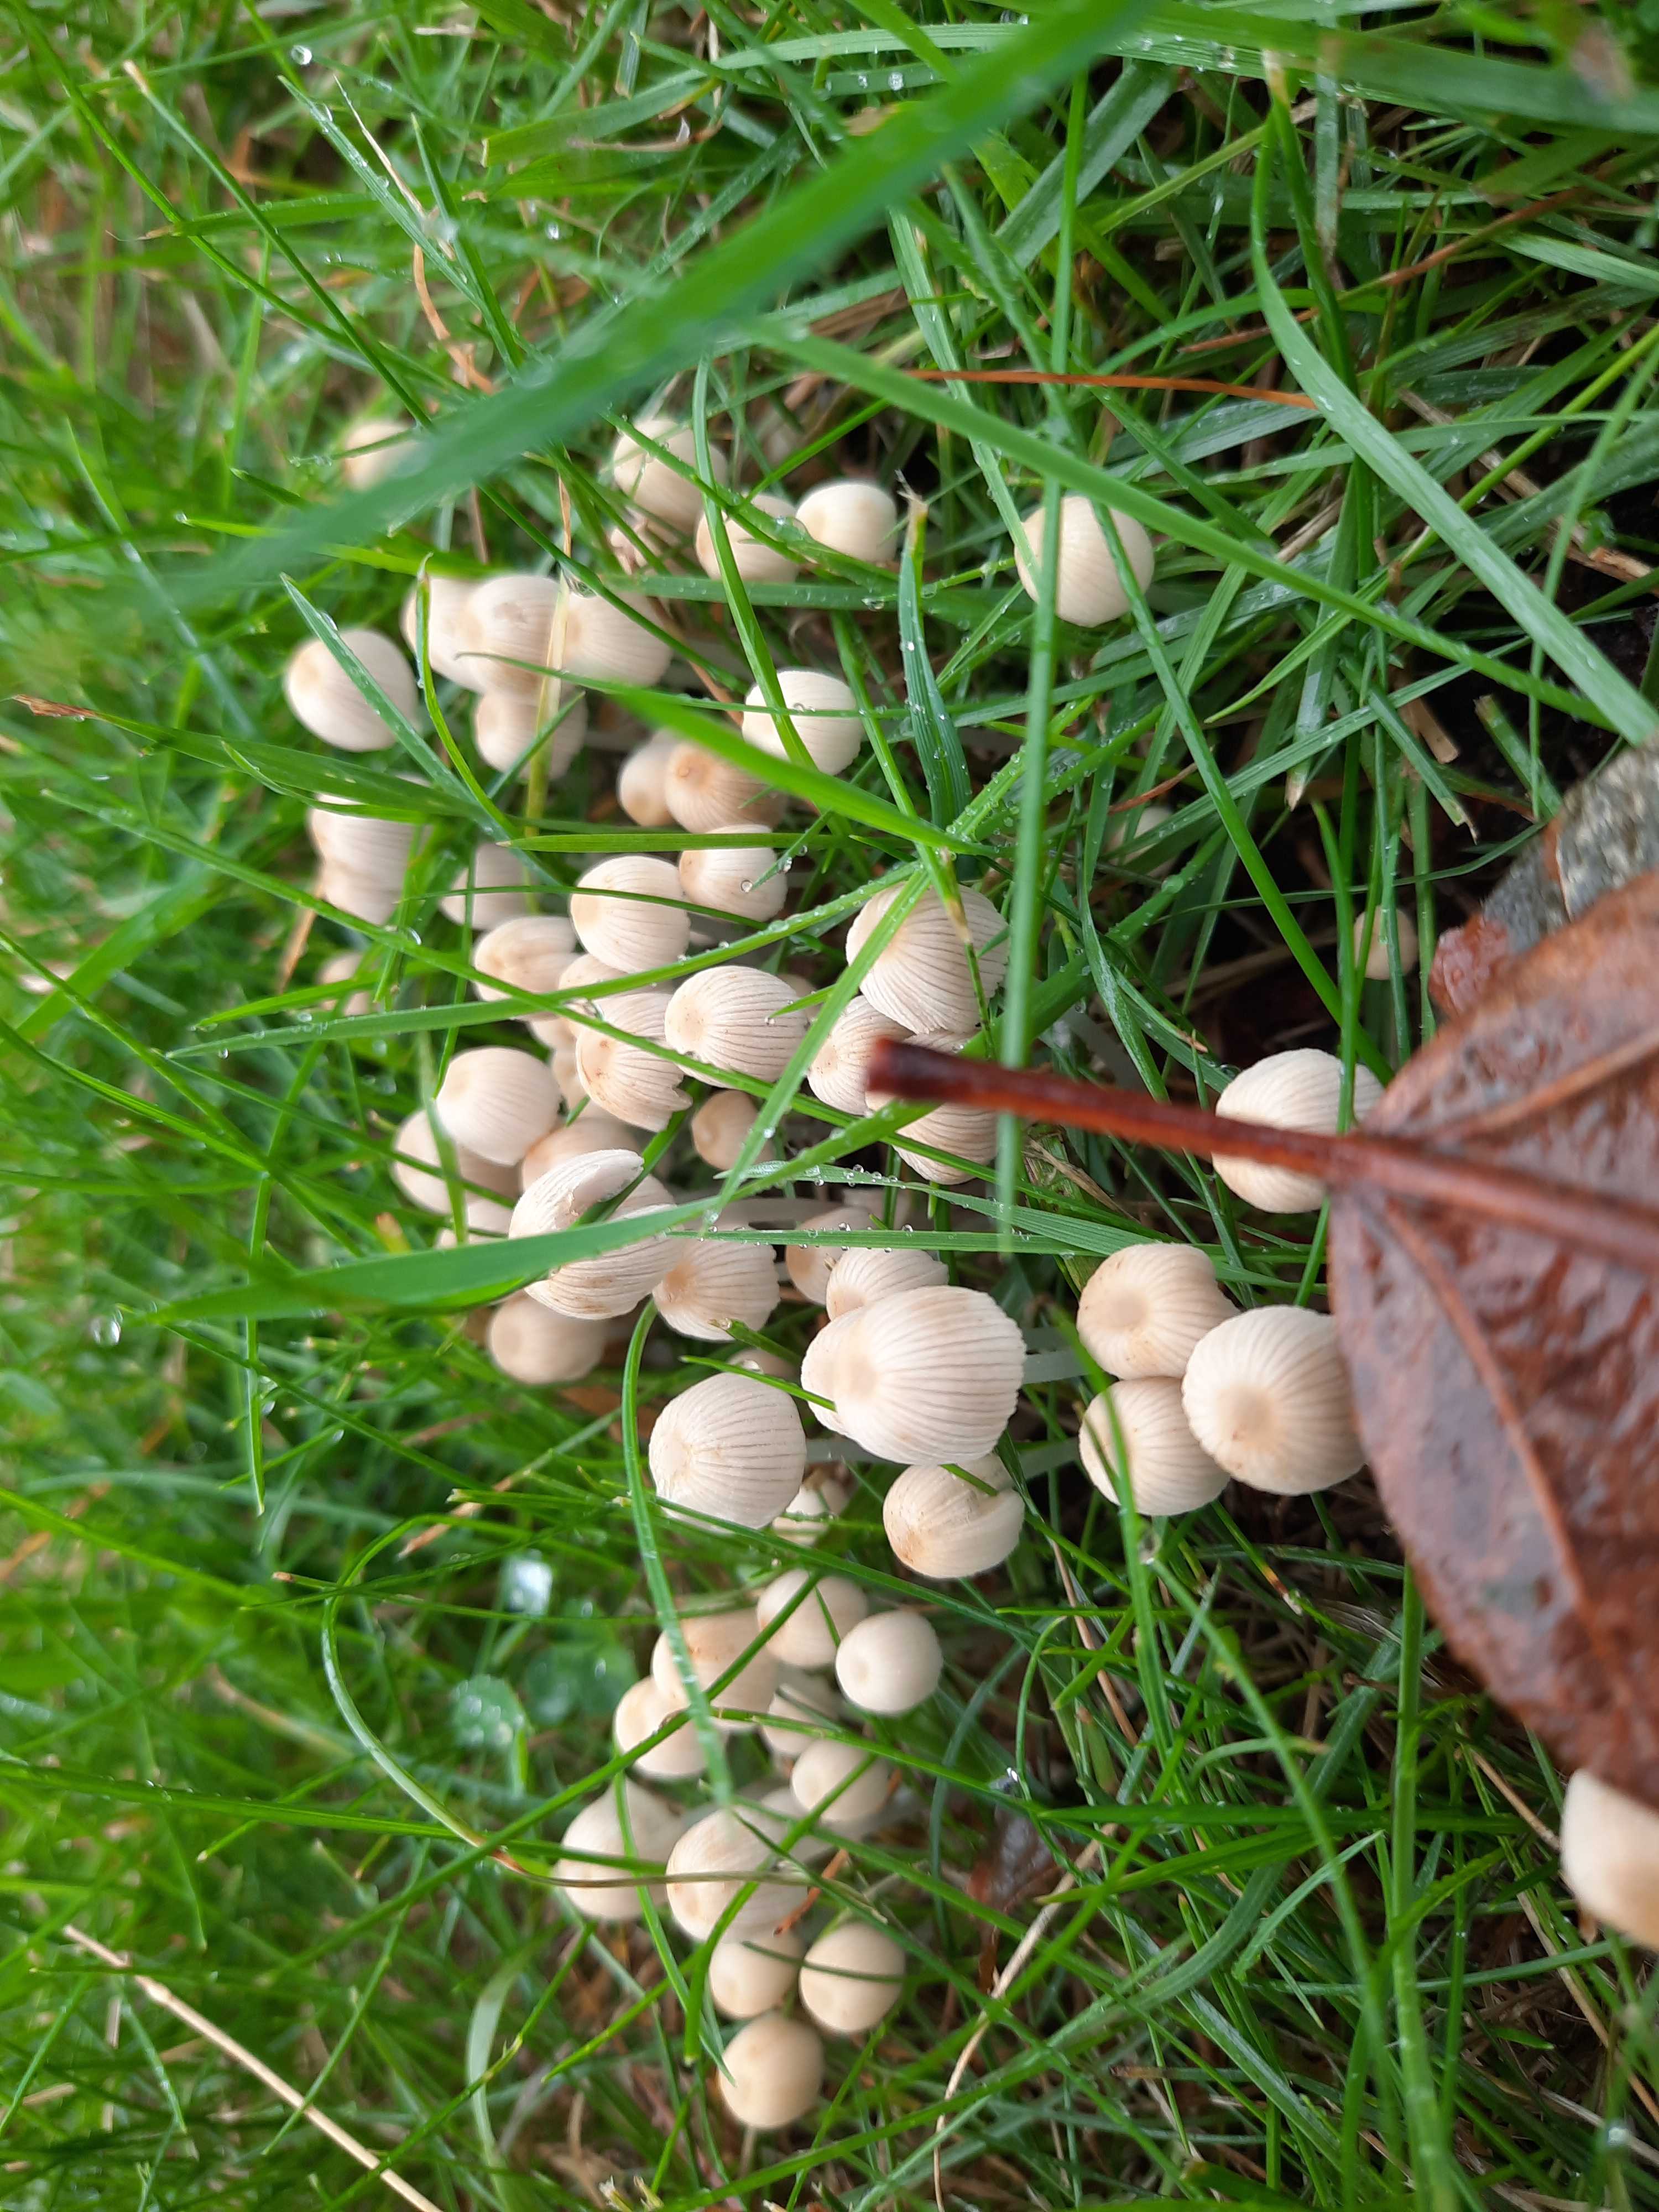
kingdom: Fungi
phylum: Basidiomycota
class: Agaricomycetes
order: Agaricales
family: Psathyrellaceae
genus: Coprinellus
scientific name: Coprinellus disseminatus
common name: bredsået blækhat
